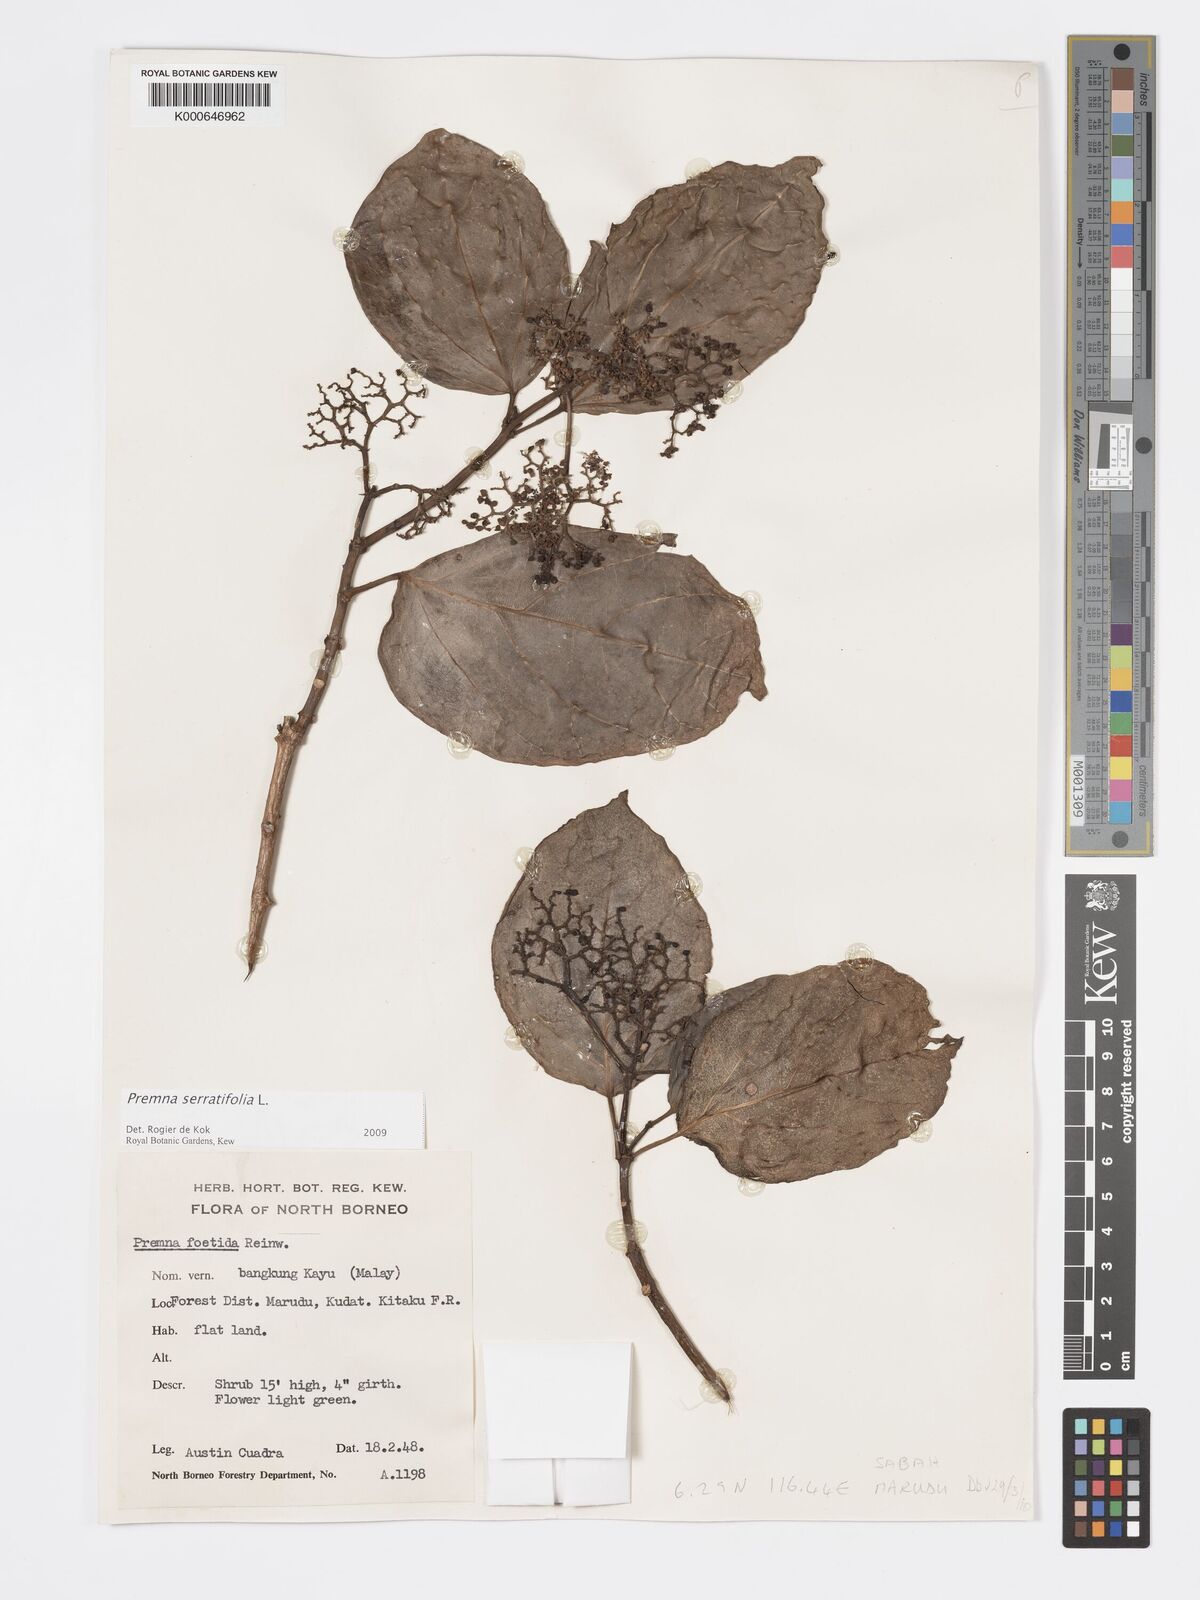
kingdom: Plantae
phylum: Tracheophyta
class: Magnoliopsida
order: Lamiales
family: Lamiaceae
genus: Premna
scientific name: Premna serratifolia
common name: Bastard guelder
